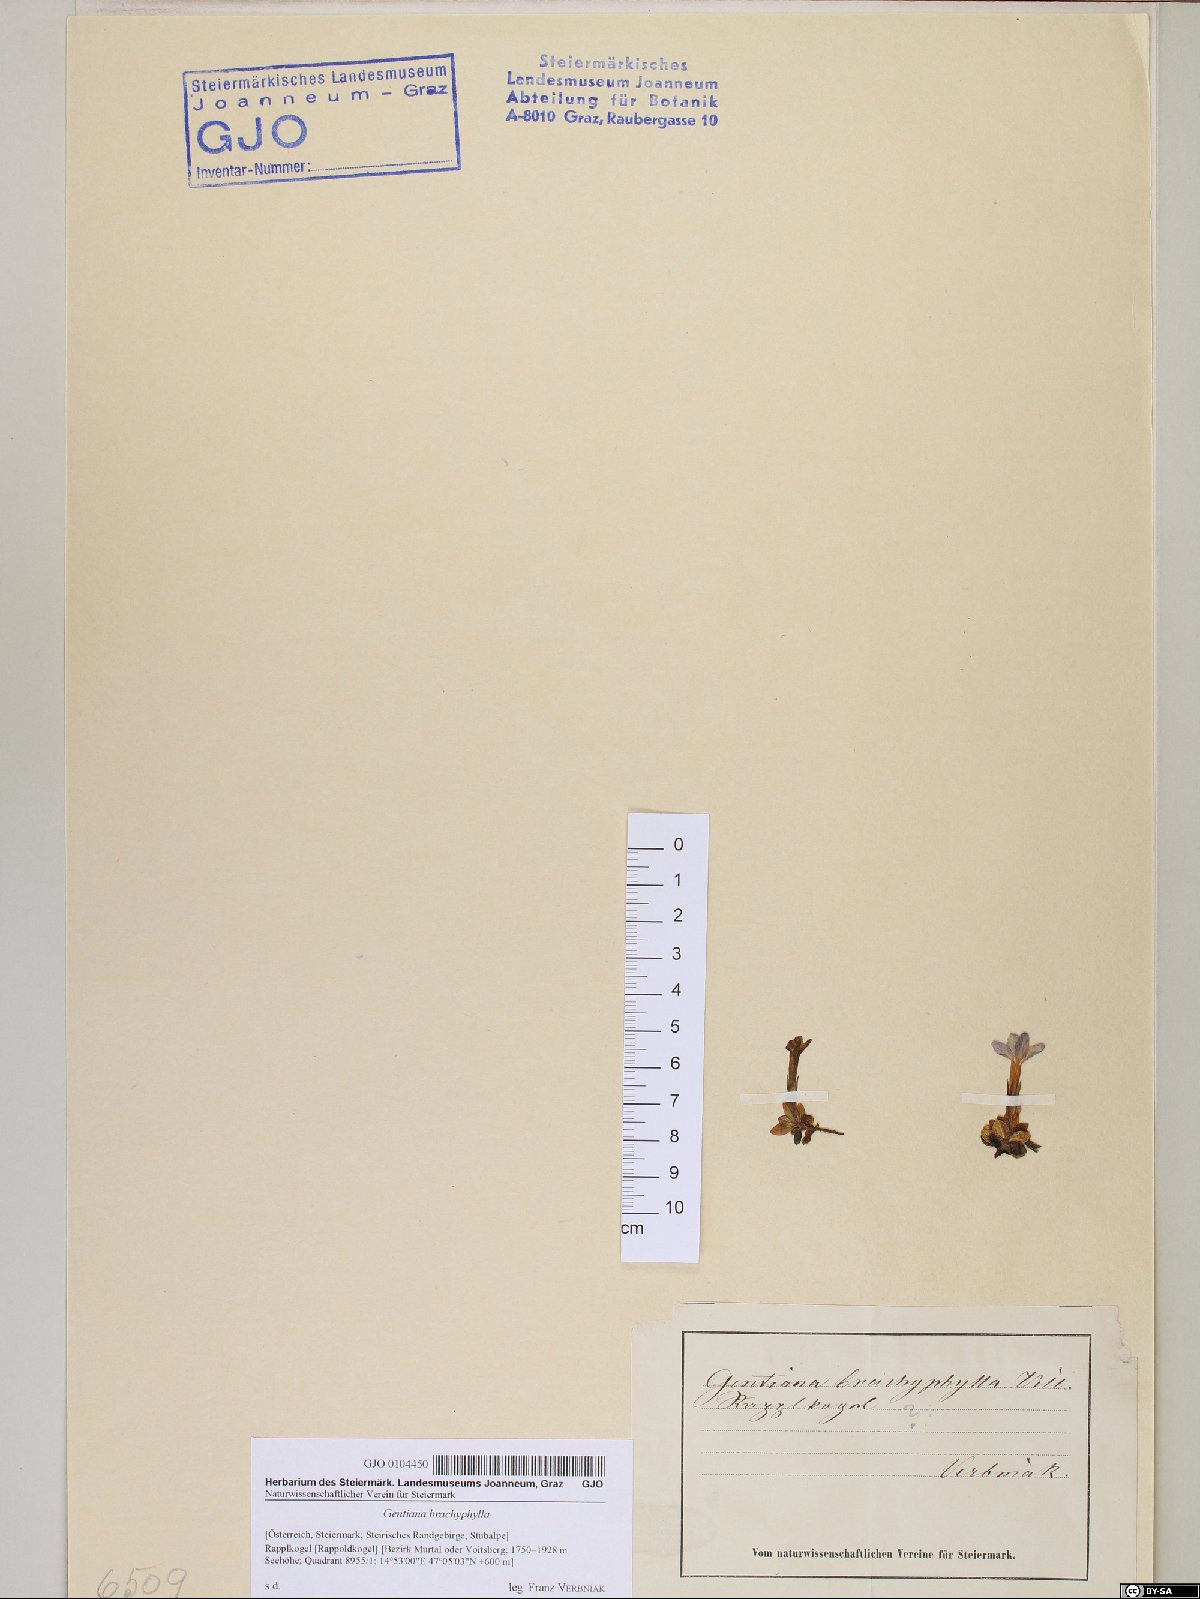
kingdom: Plantae
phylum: Tracheophyta
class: Magnoliopsida
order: Gentianales
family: Gentianaceae
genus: Gentiana
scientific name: Gentiana brachyphylla
